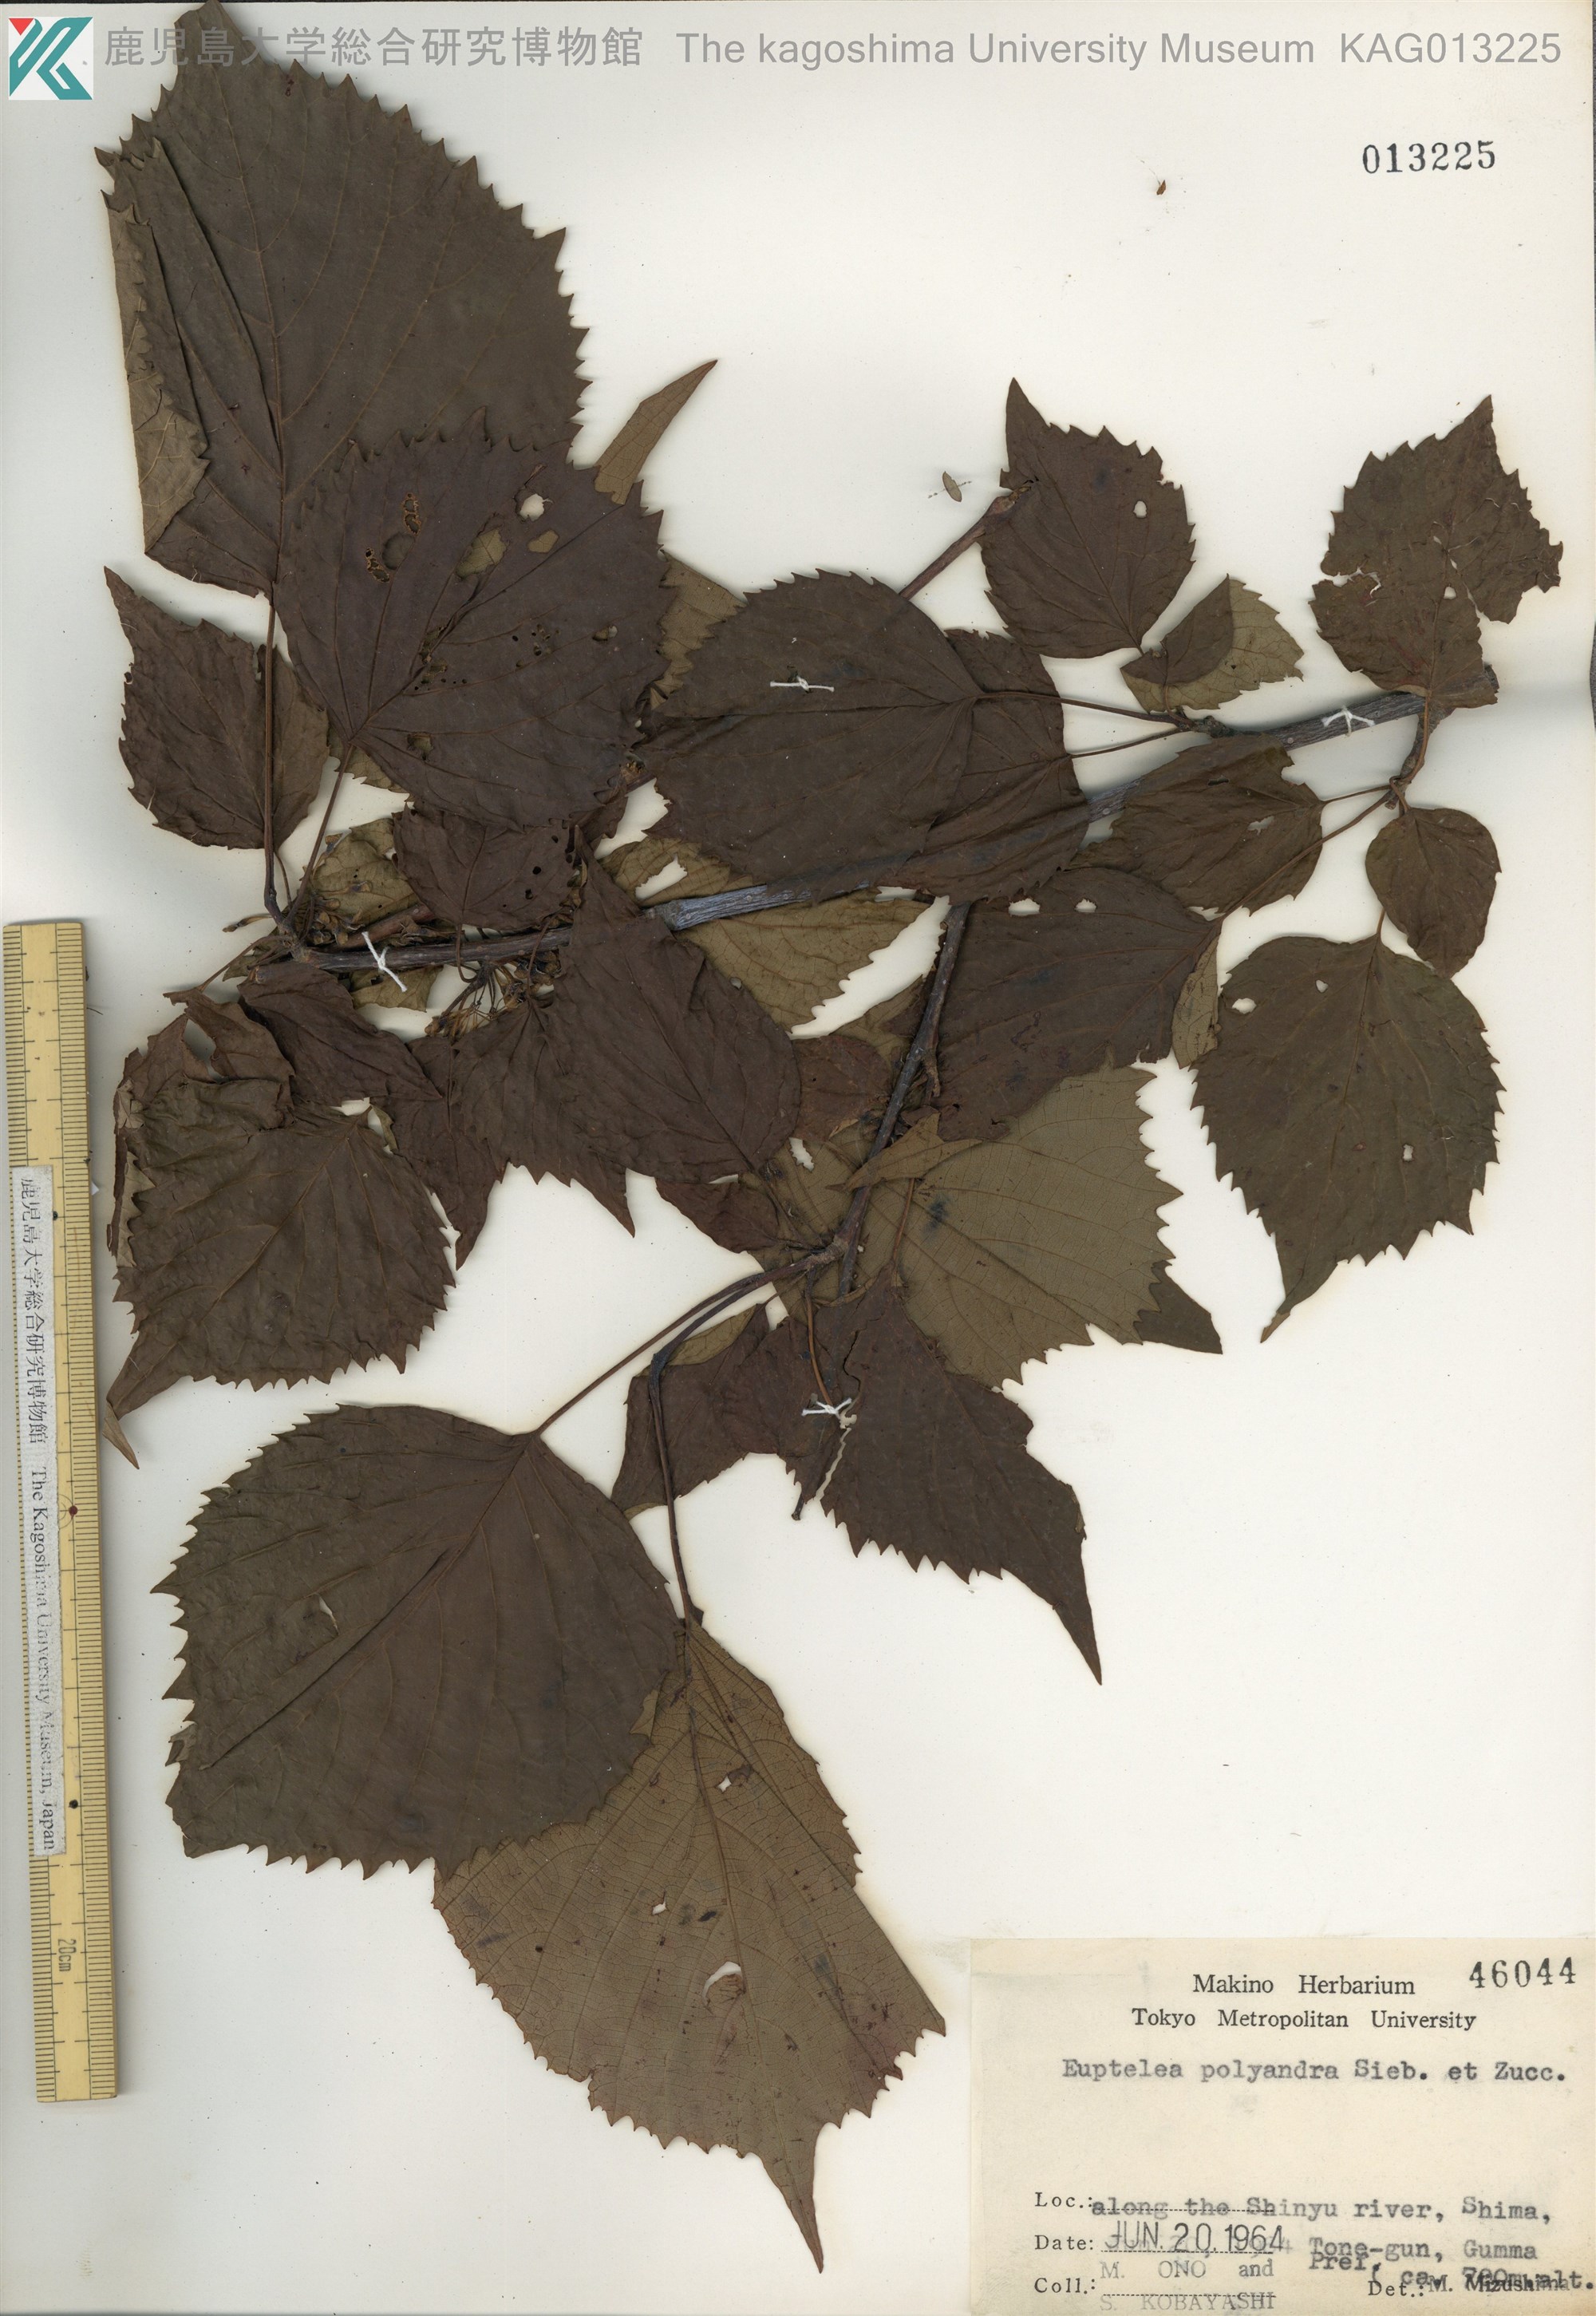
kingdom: Plantae
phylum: Tracheophyta
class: Magnoliopsida
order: Ranunculales
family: Eupteleaceae
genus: Euptelea
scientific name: Euptelea polyandra
